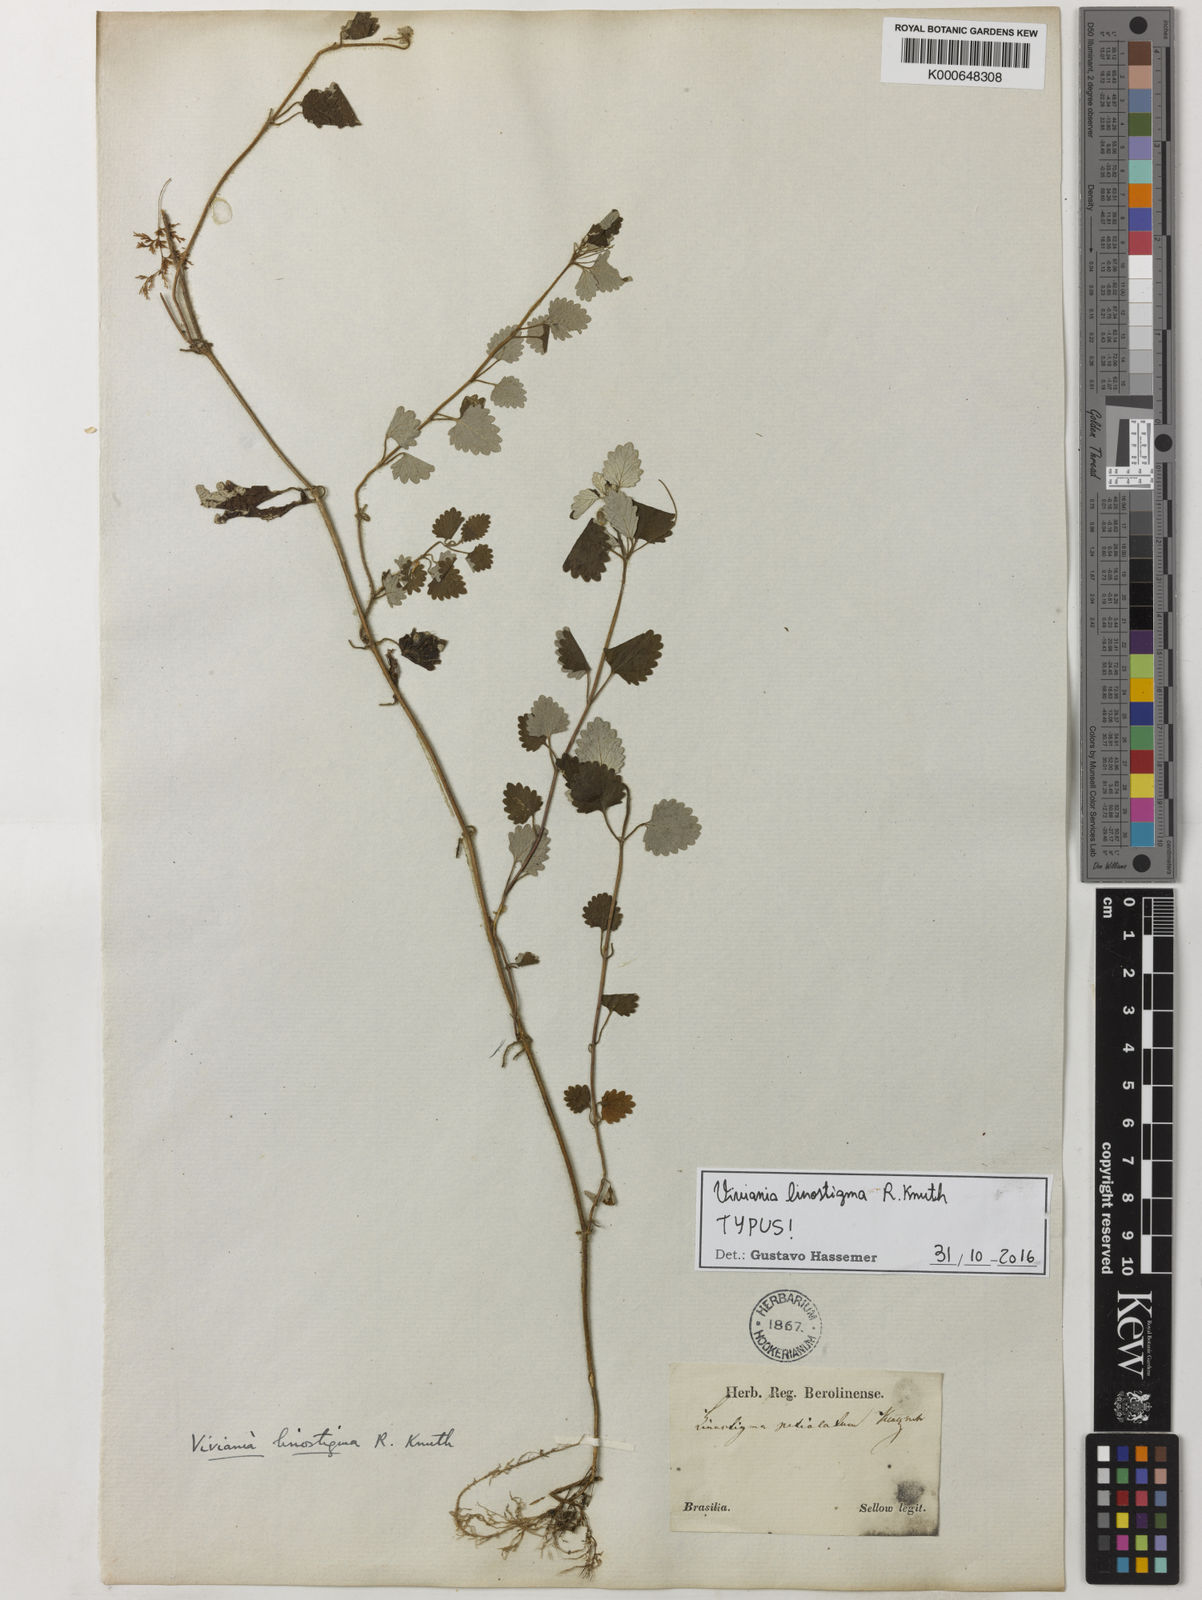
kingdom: Plantae
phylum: Tracheophyta
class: Magnoliopsida
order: Geraniales
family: Vivianiaceae
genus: Viviania
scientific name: Viviania albiflora
